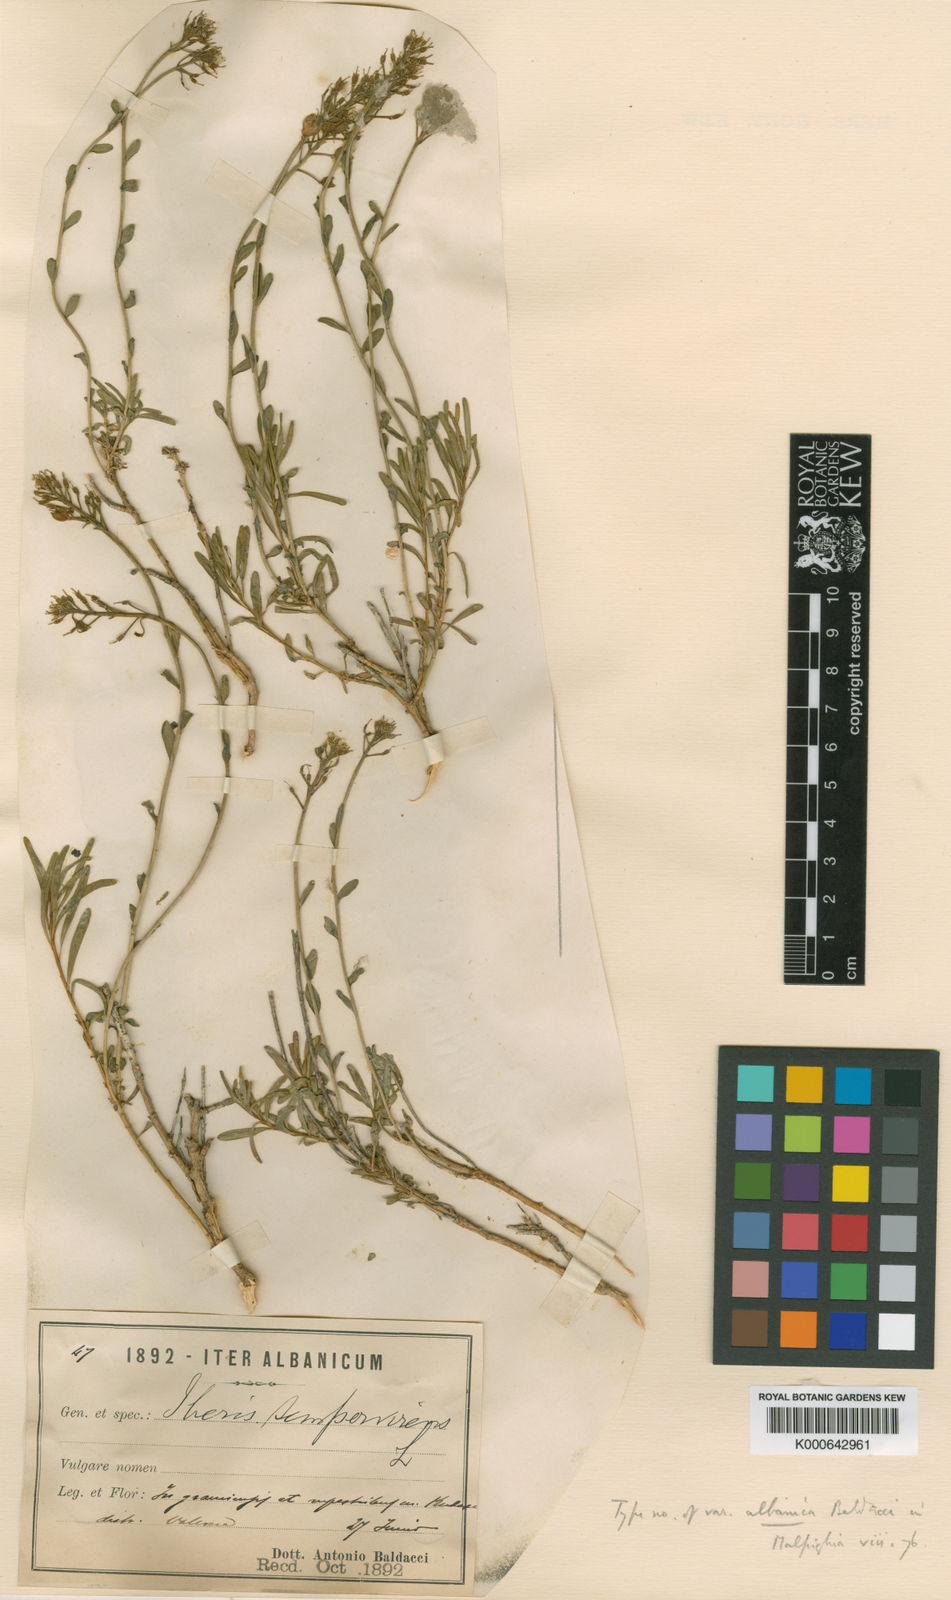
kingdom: Plantae
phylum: Tracheophyta
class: Magnoliopsida
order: Brassicales
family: Brassicaceae
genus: Iberis
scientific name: Iberis sempervirens
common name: Evergreen candytuft
